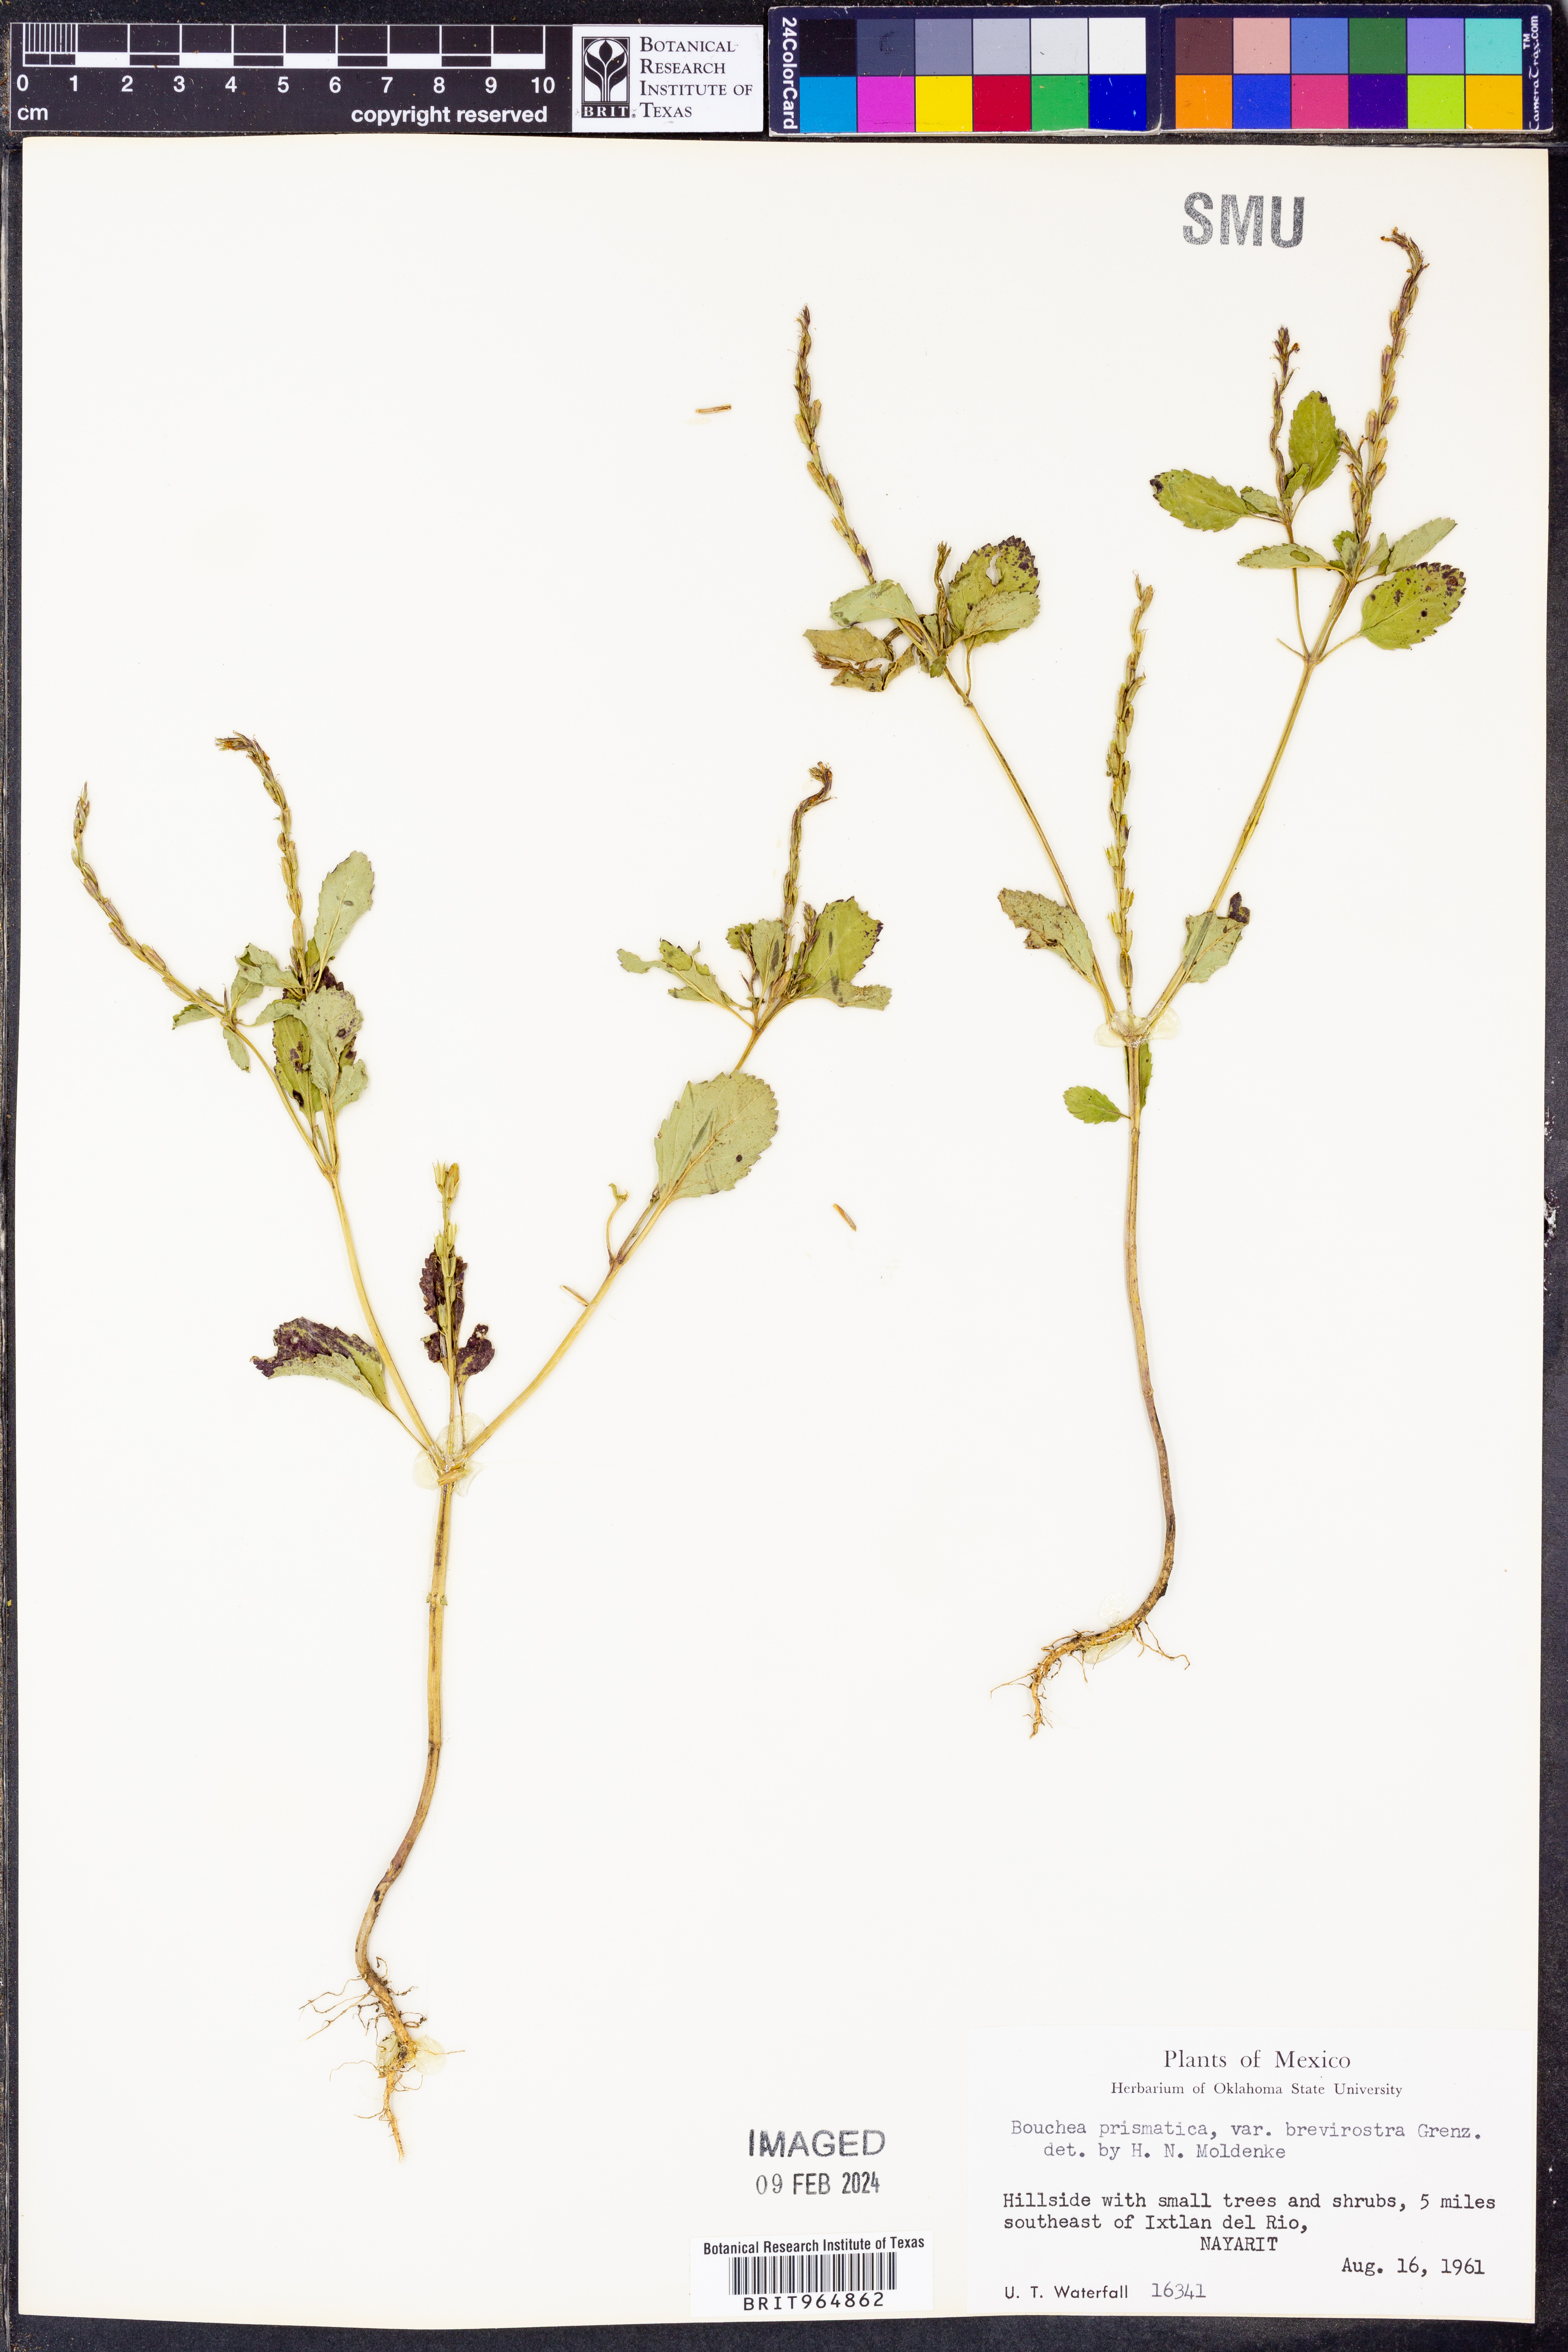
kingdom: Plantae
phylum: Tracheophyta
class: Magnoliopsida
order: Lamiales
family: Verbenaceae
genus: Bouchea
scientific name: Bouchea
